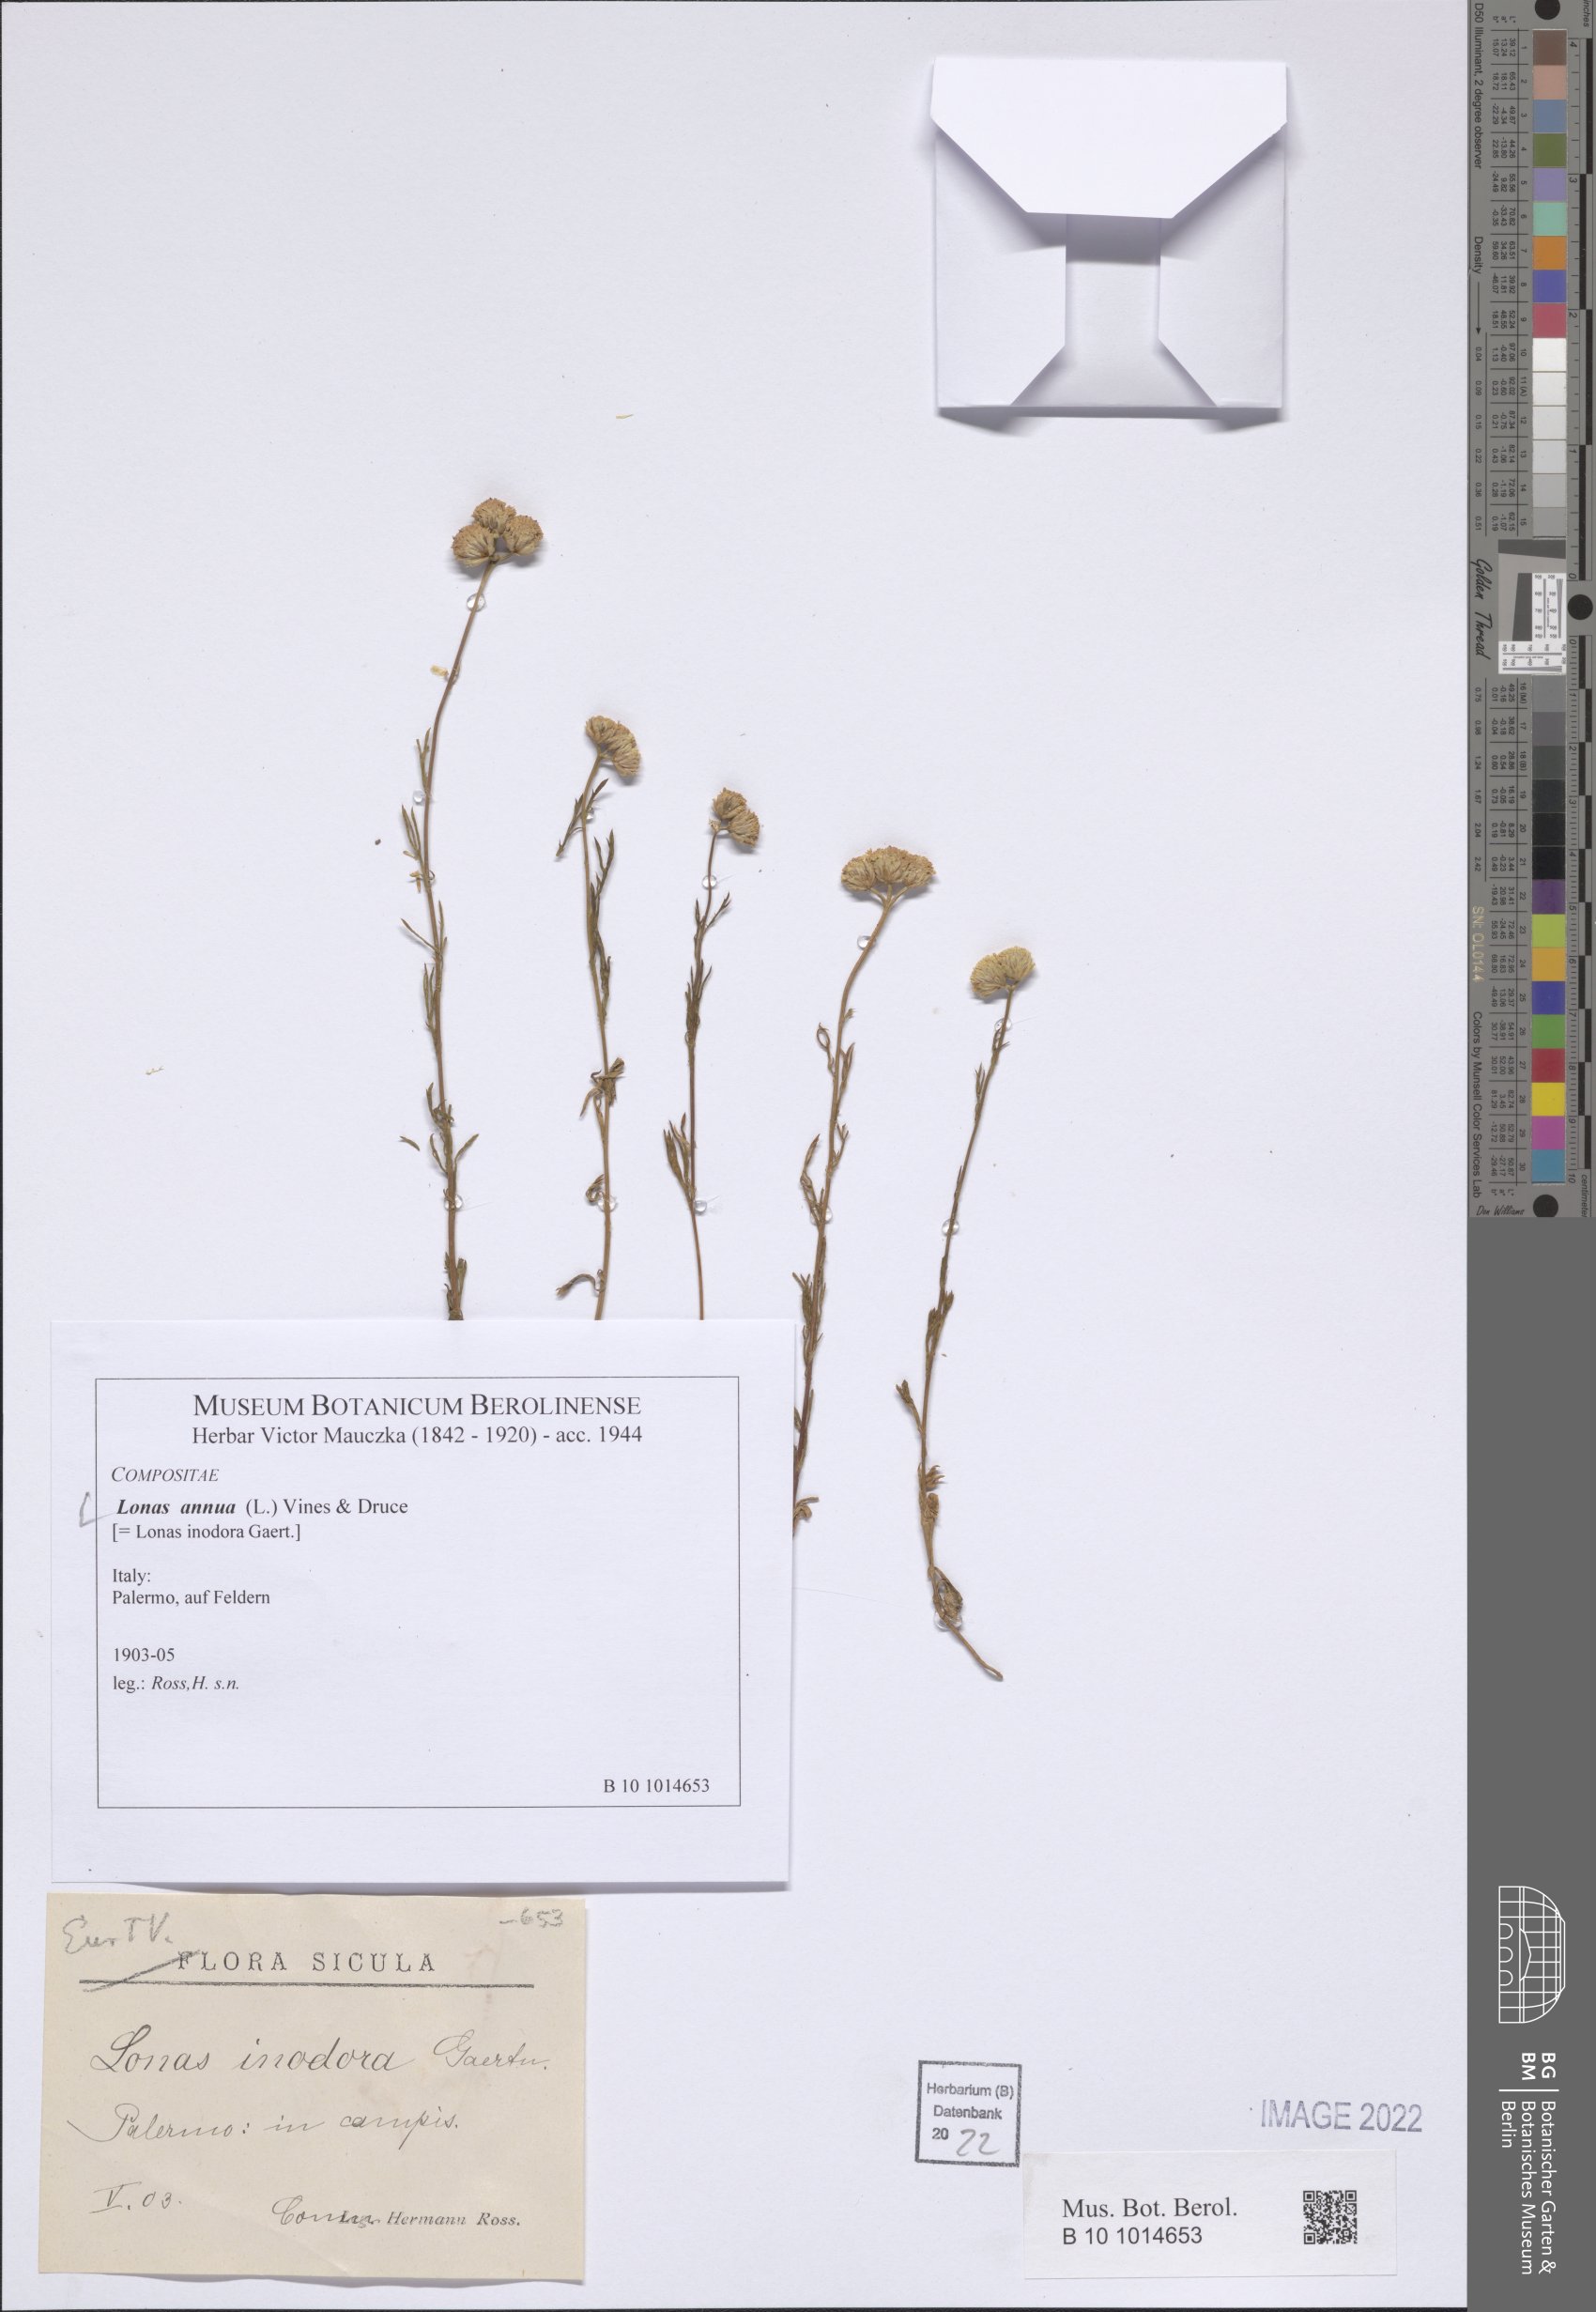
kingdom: Plantae
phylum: Tracheophyta
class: Magnoliopsida
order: Asterales
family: Asteraceae
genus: Lonas
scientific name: Lonas annua
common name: African daisy
